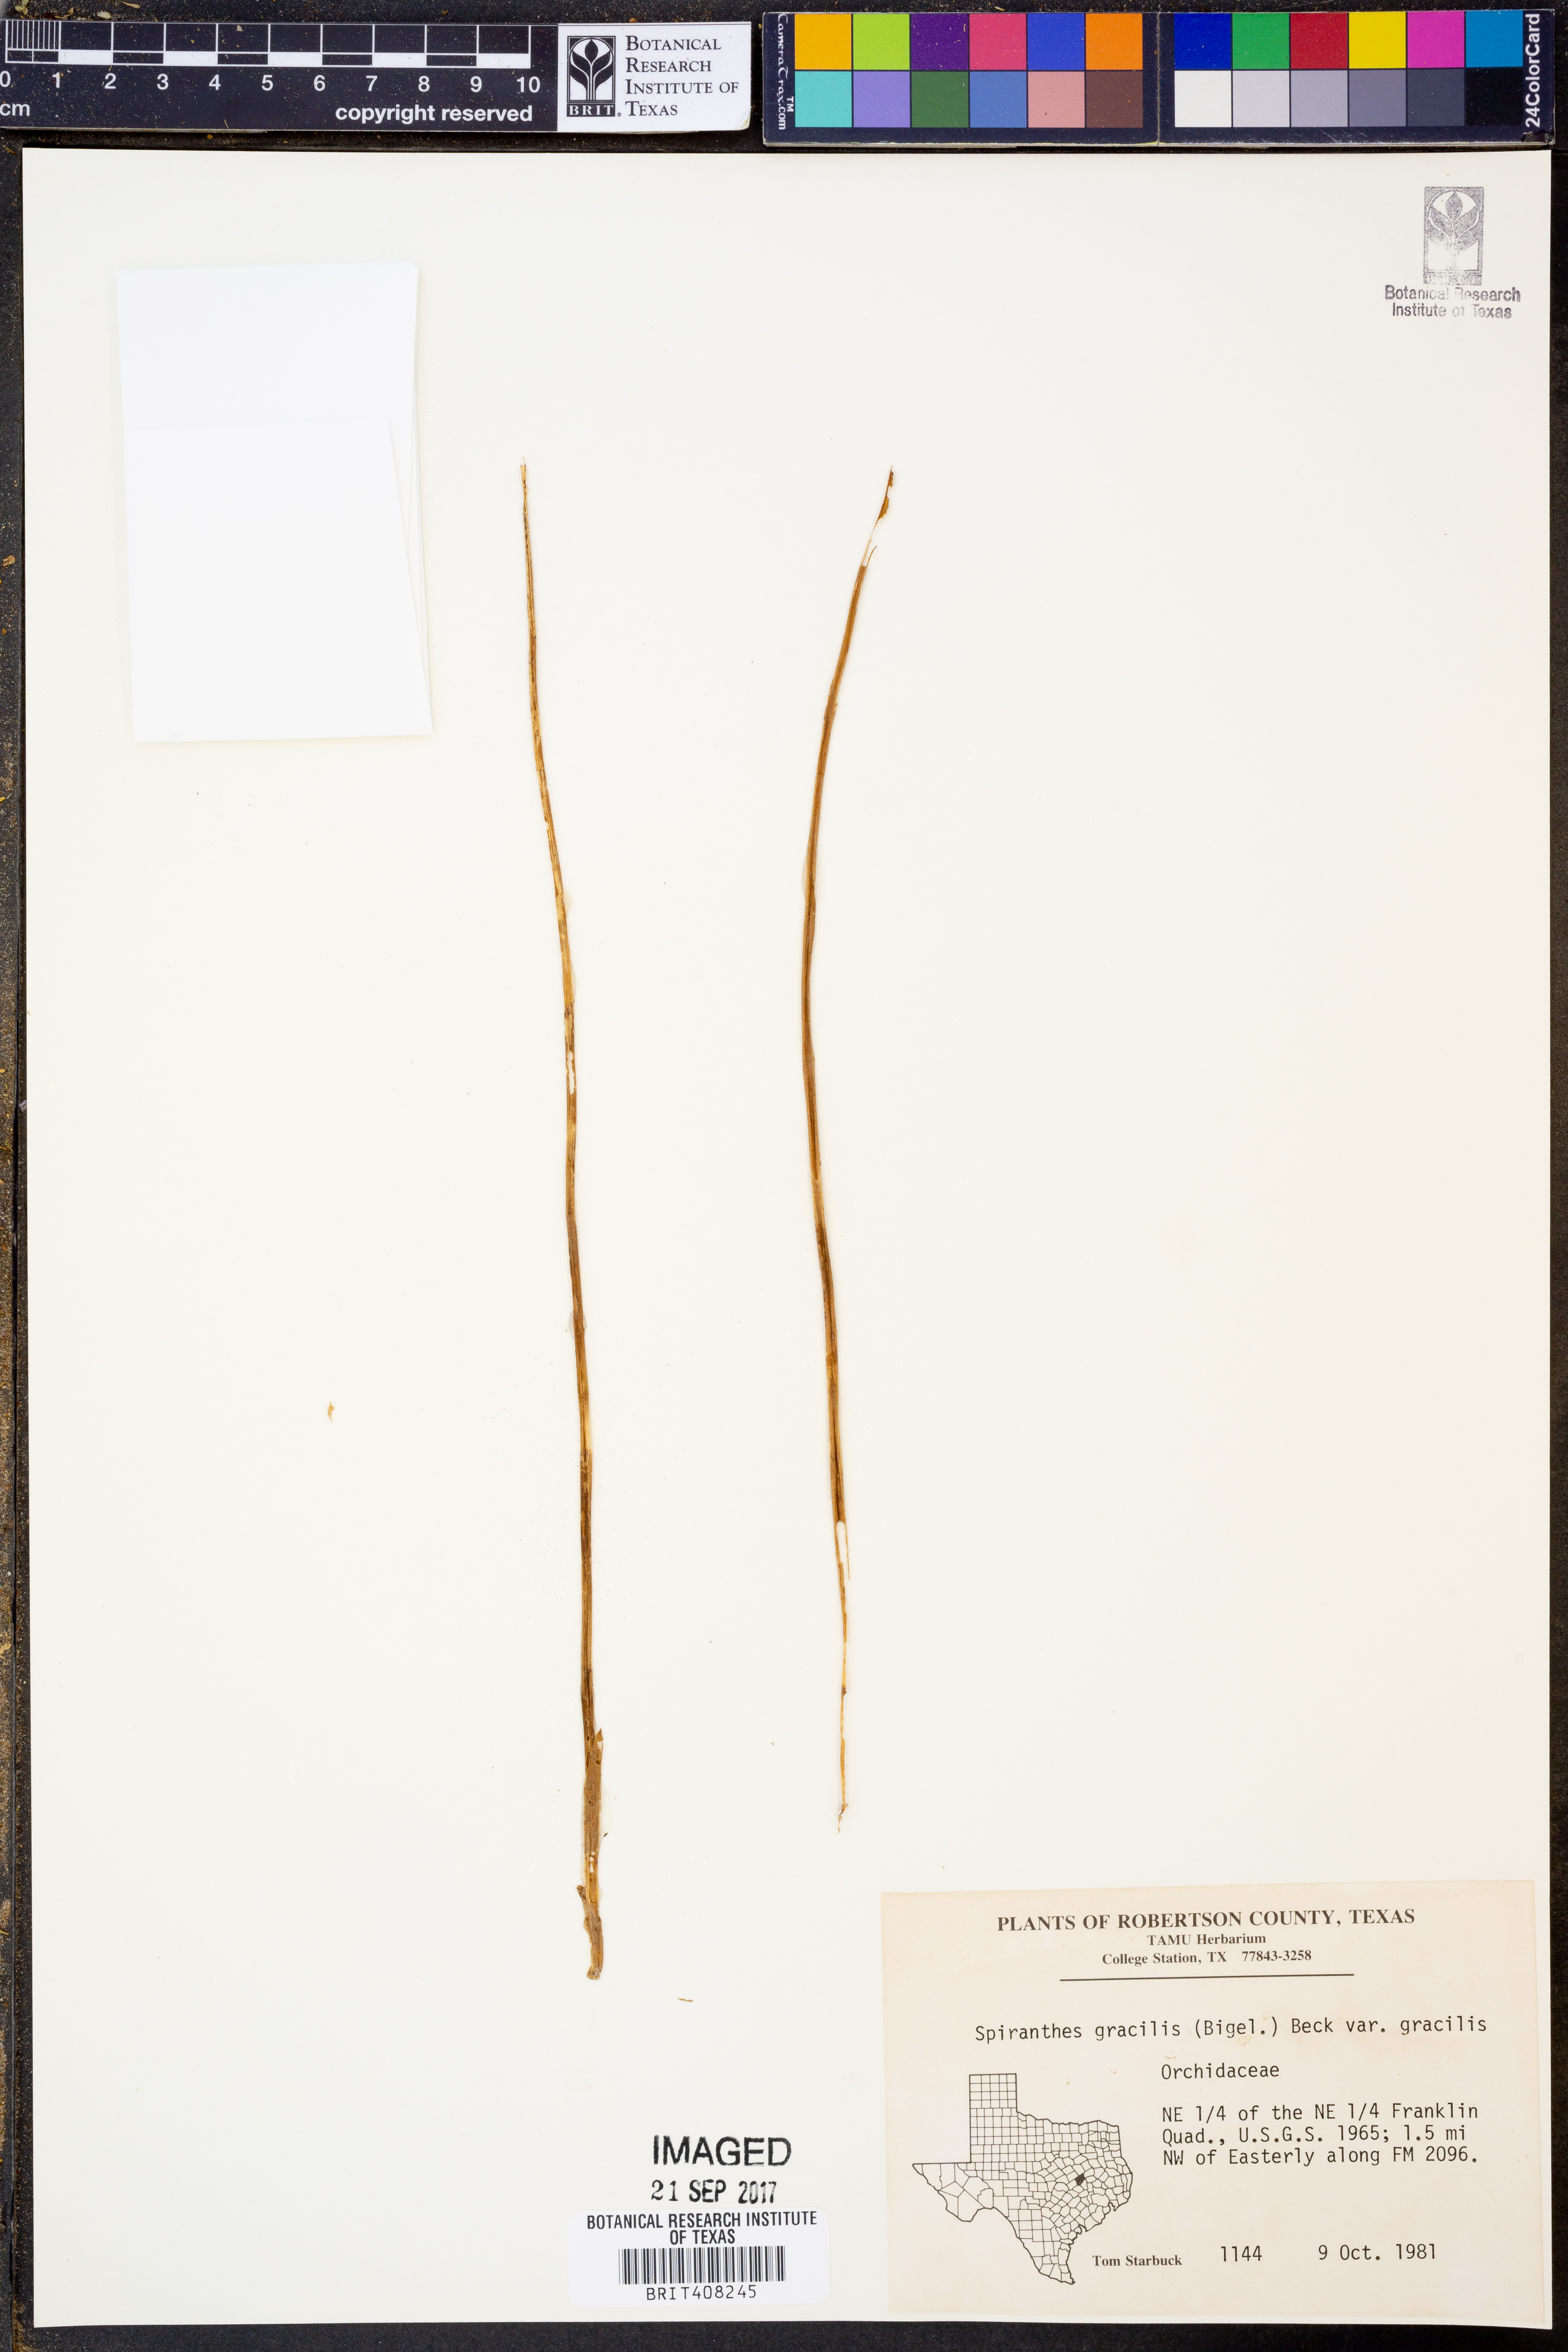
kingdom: Plantae
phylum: Tracheophyta
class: Liliopsida
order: Asparagales
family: Orchidaceae
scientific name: Orchidaceae
